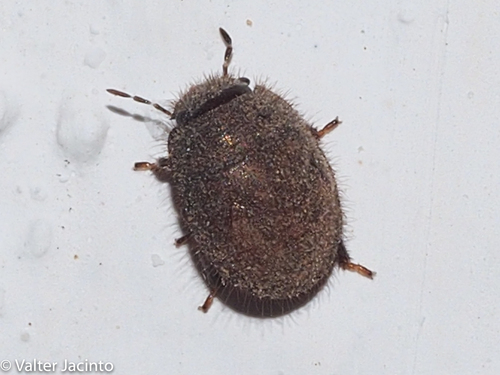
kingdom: Animalia
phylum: Arthropoda
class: Insecta
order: Hemiptera
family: Scutelleridae
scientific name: Scutelleridae
